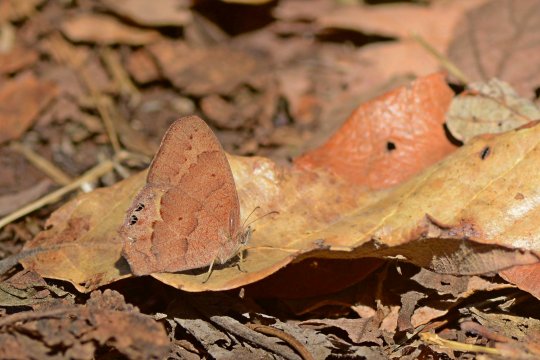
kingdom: Animalia
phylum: Arthropoda
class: Insecta
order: Lepidoptera
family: Nymphalidae
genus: Euptychia
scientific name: Euptychia
